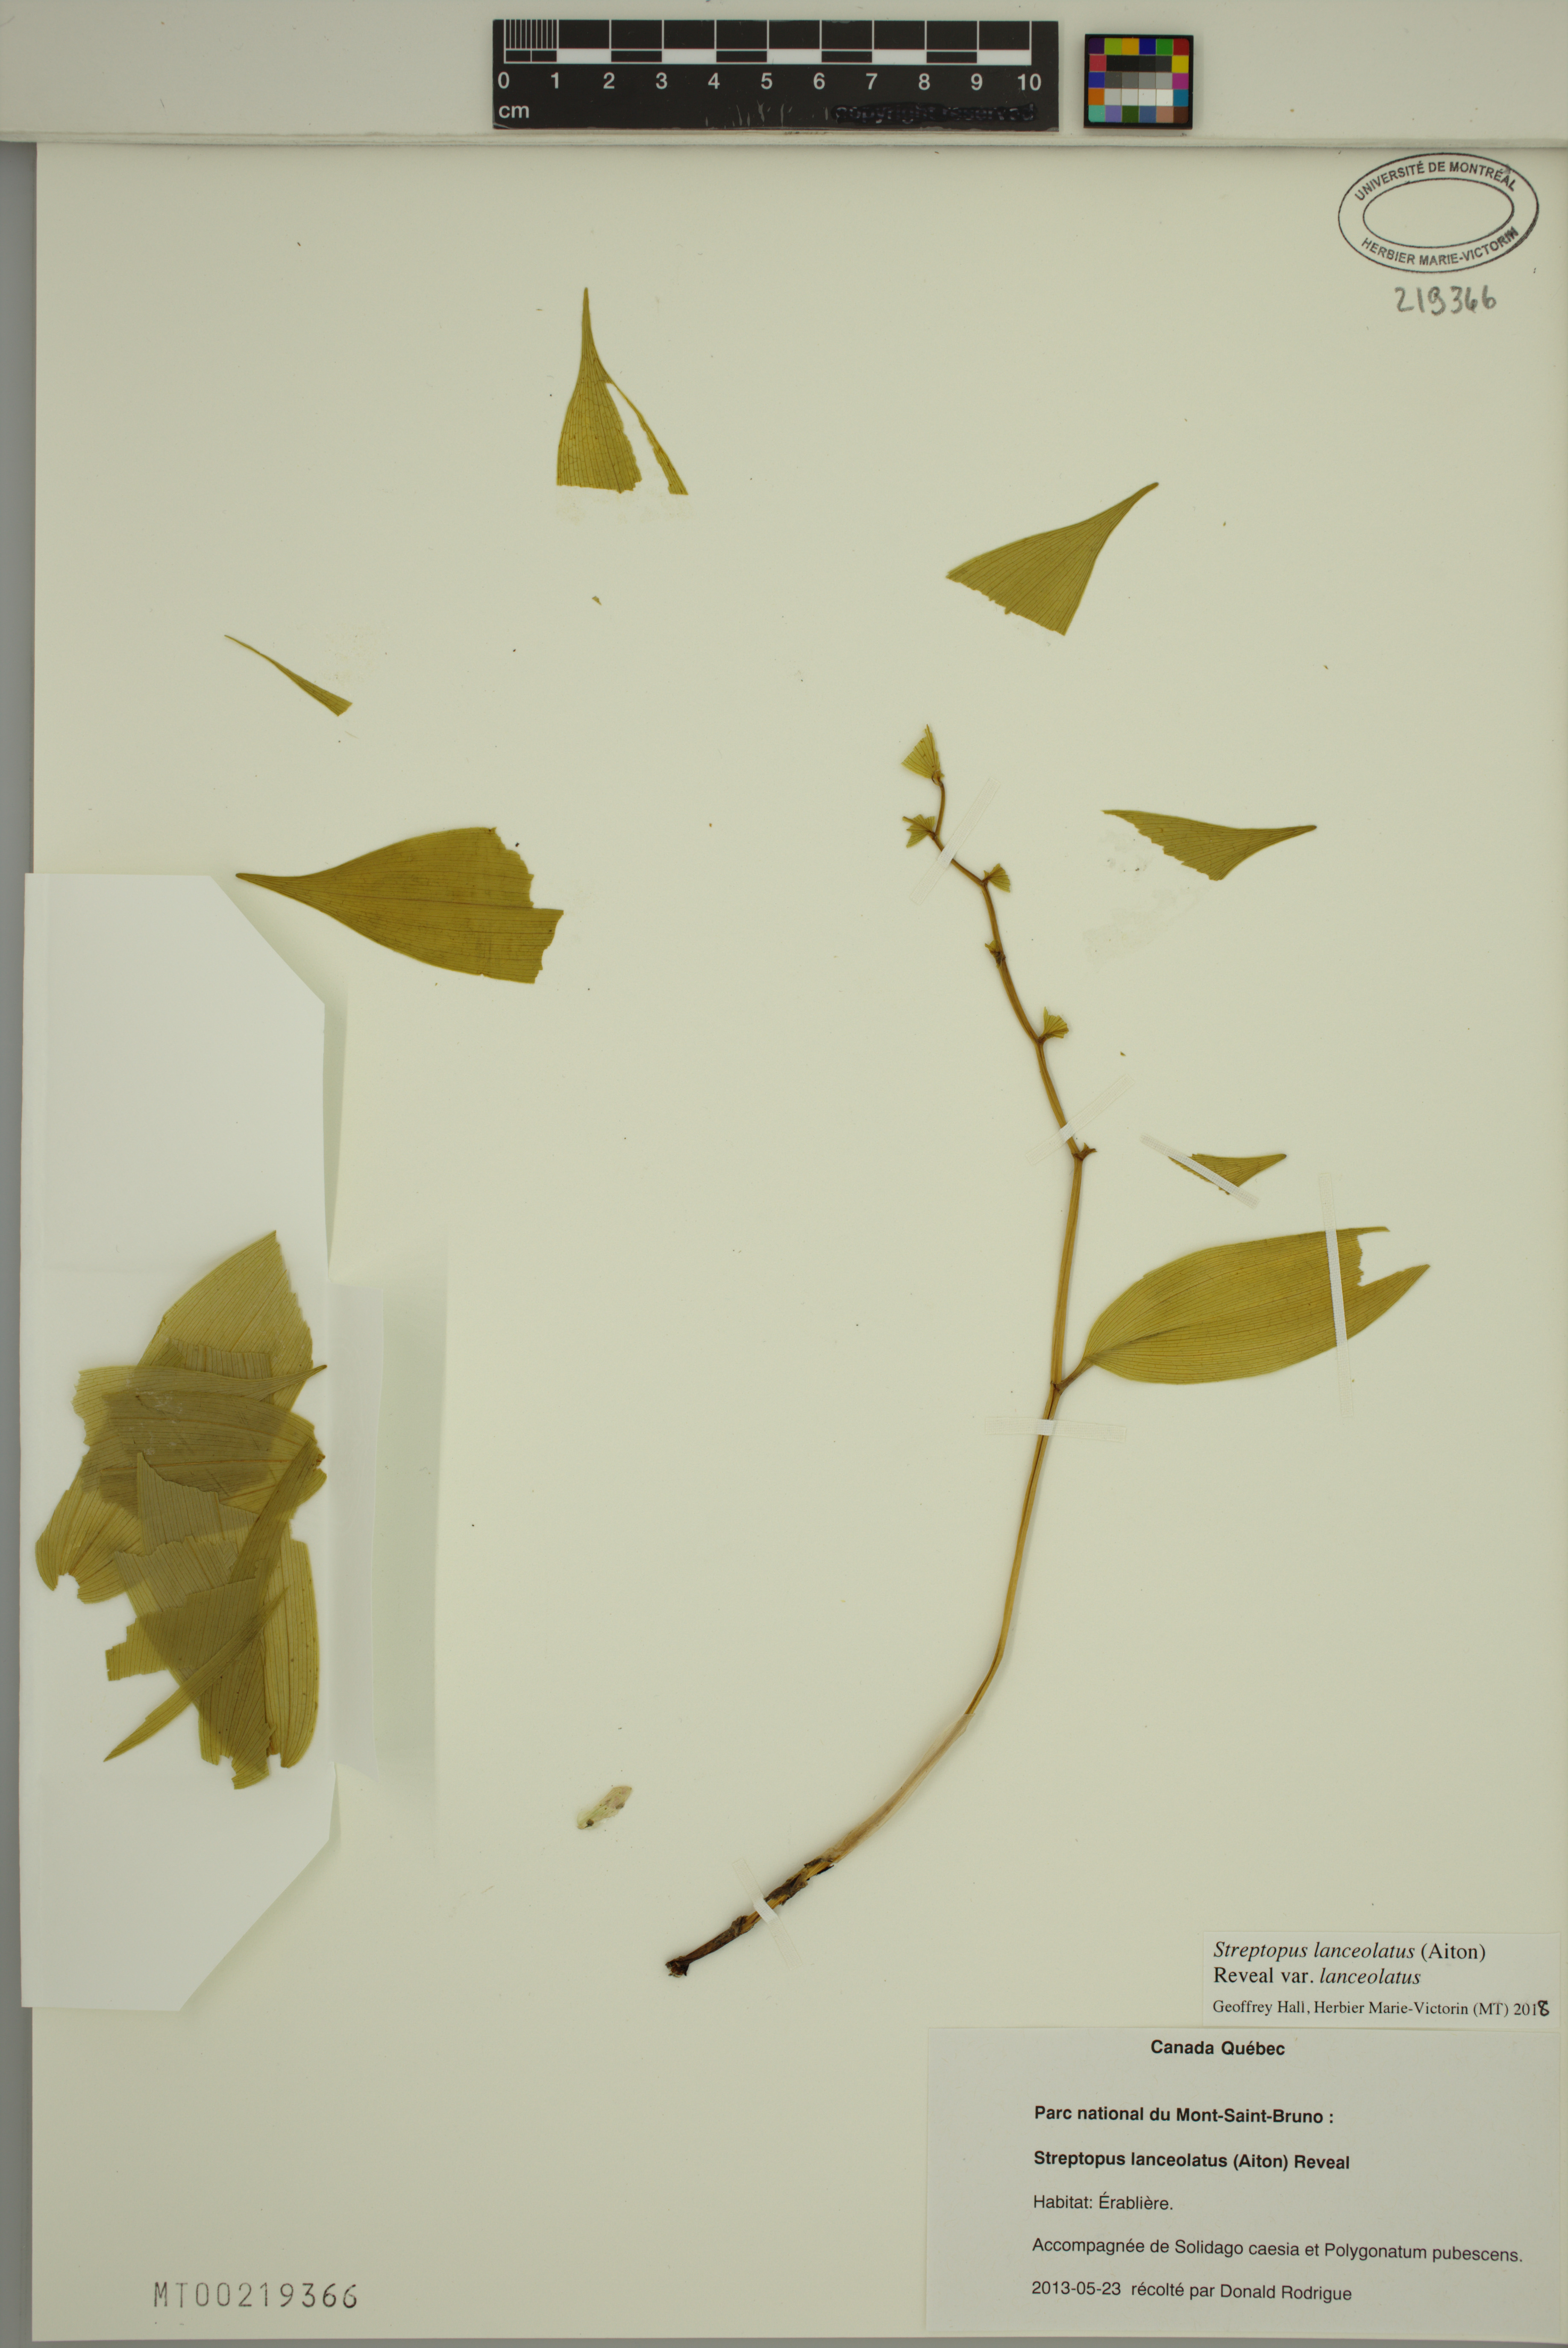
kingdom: Plantae
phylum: Tracheophyta
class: Liliopsida
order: Liliales
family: Liliaceae
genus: Streptopus
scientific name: Streptopus lanceolatus
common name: Rose mandarin
